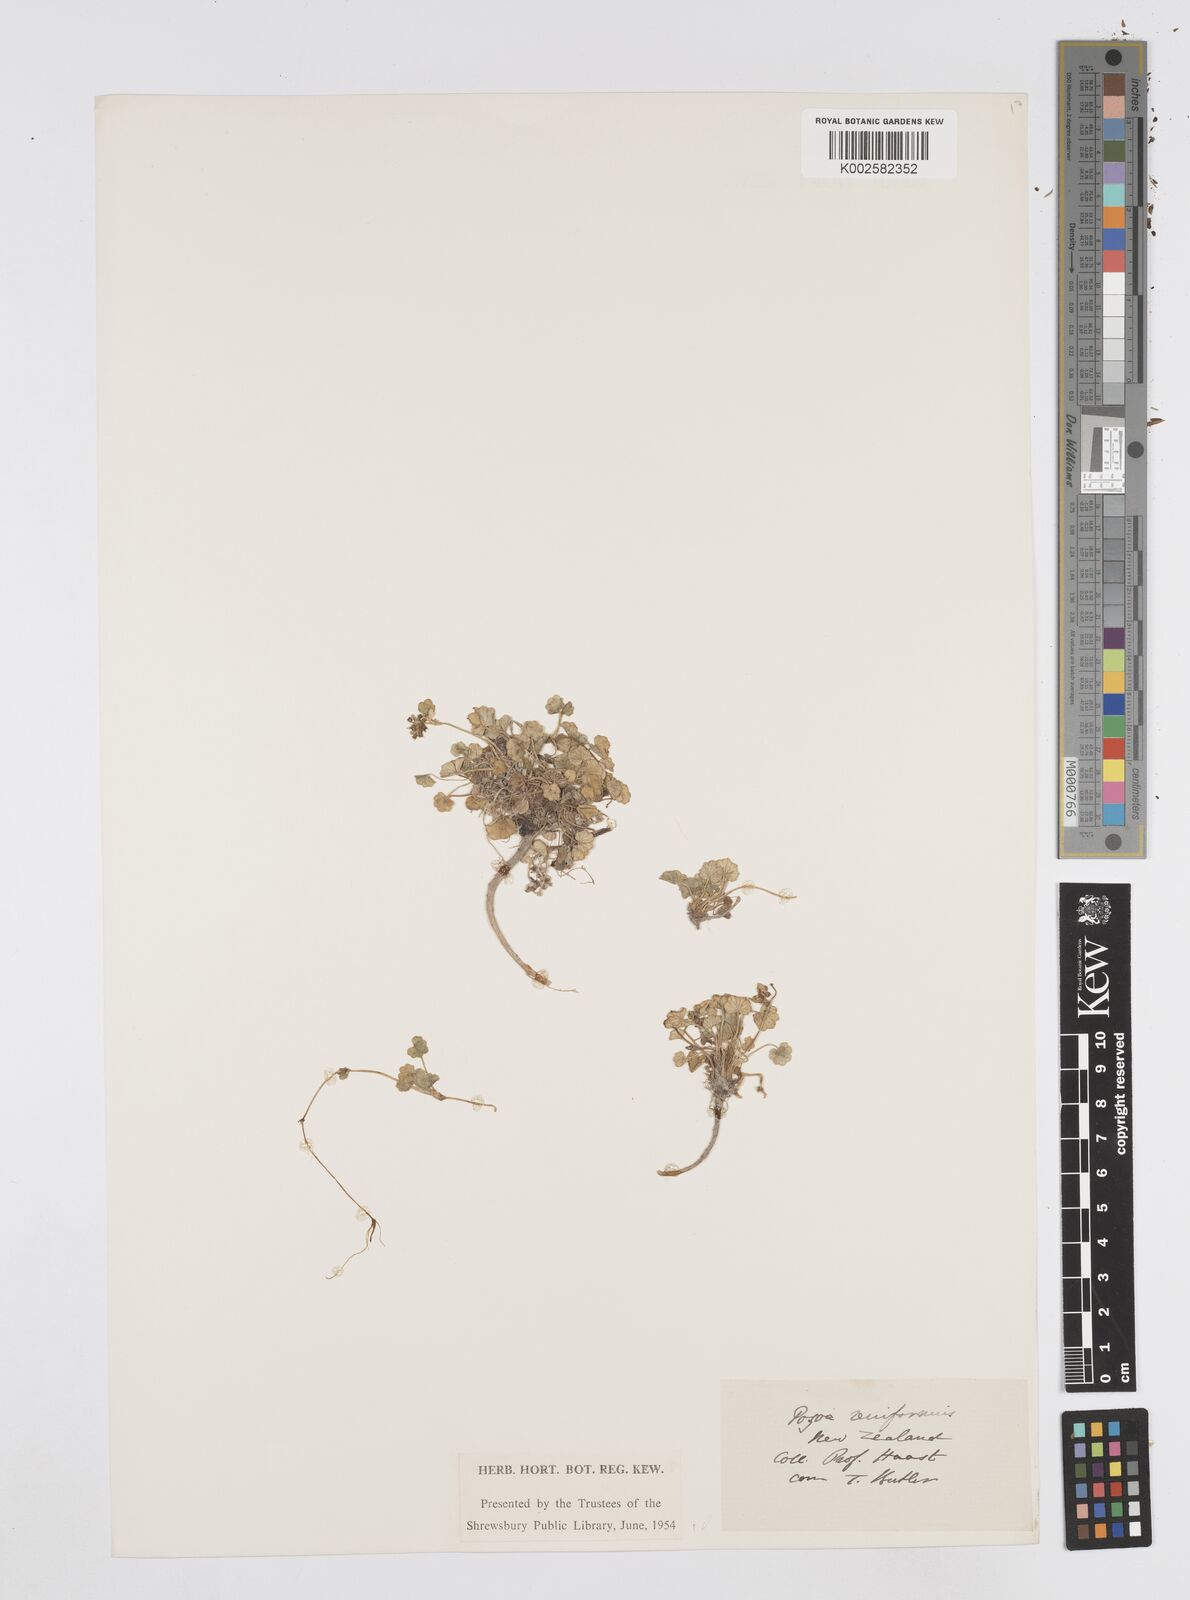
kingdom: Plantae
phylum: Tracheophyta
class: Magnoliopsida
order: Apiales
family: Apiaceae
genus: Azorella
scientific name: Azorella schizeilema
